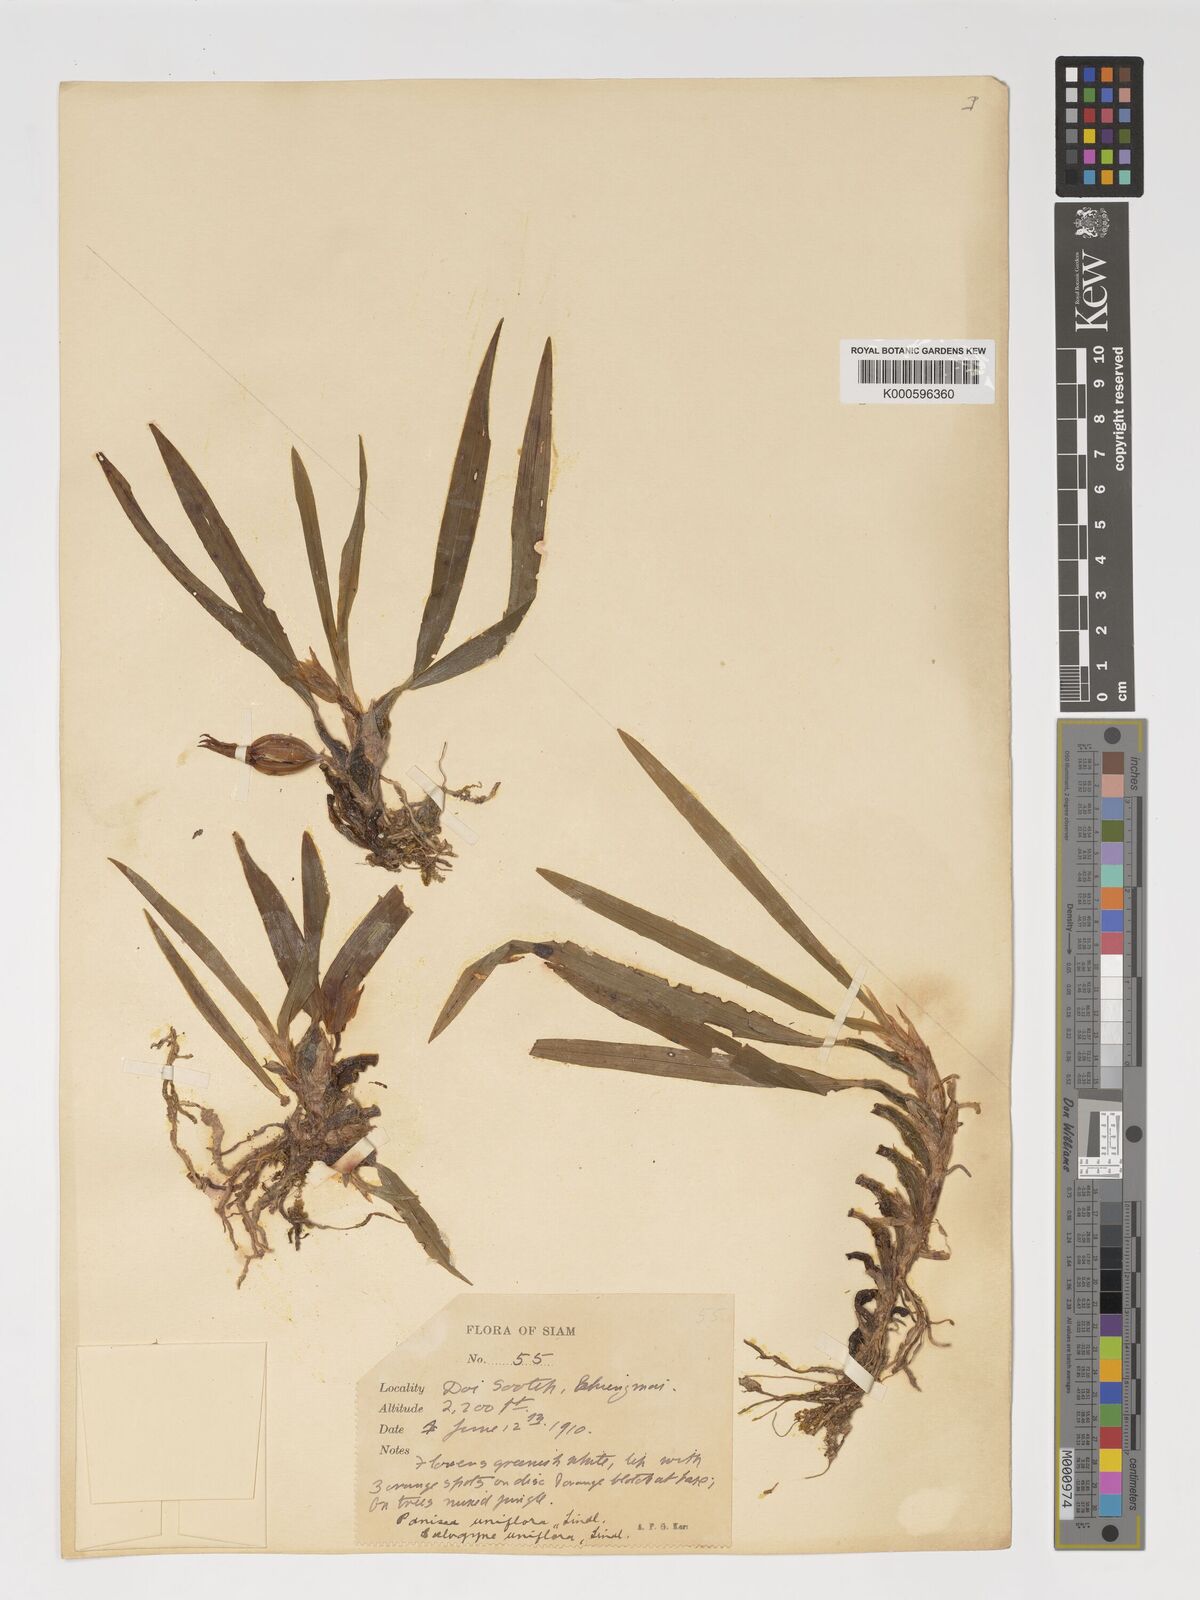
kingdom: Plantae
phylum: Tracheophyta
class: Liliopsida
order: Asparagales
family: Orchidaceae
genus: Coelogyne
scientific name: Coelogyne uniflora
